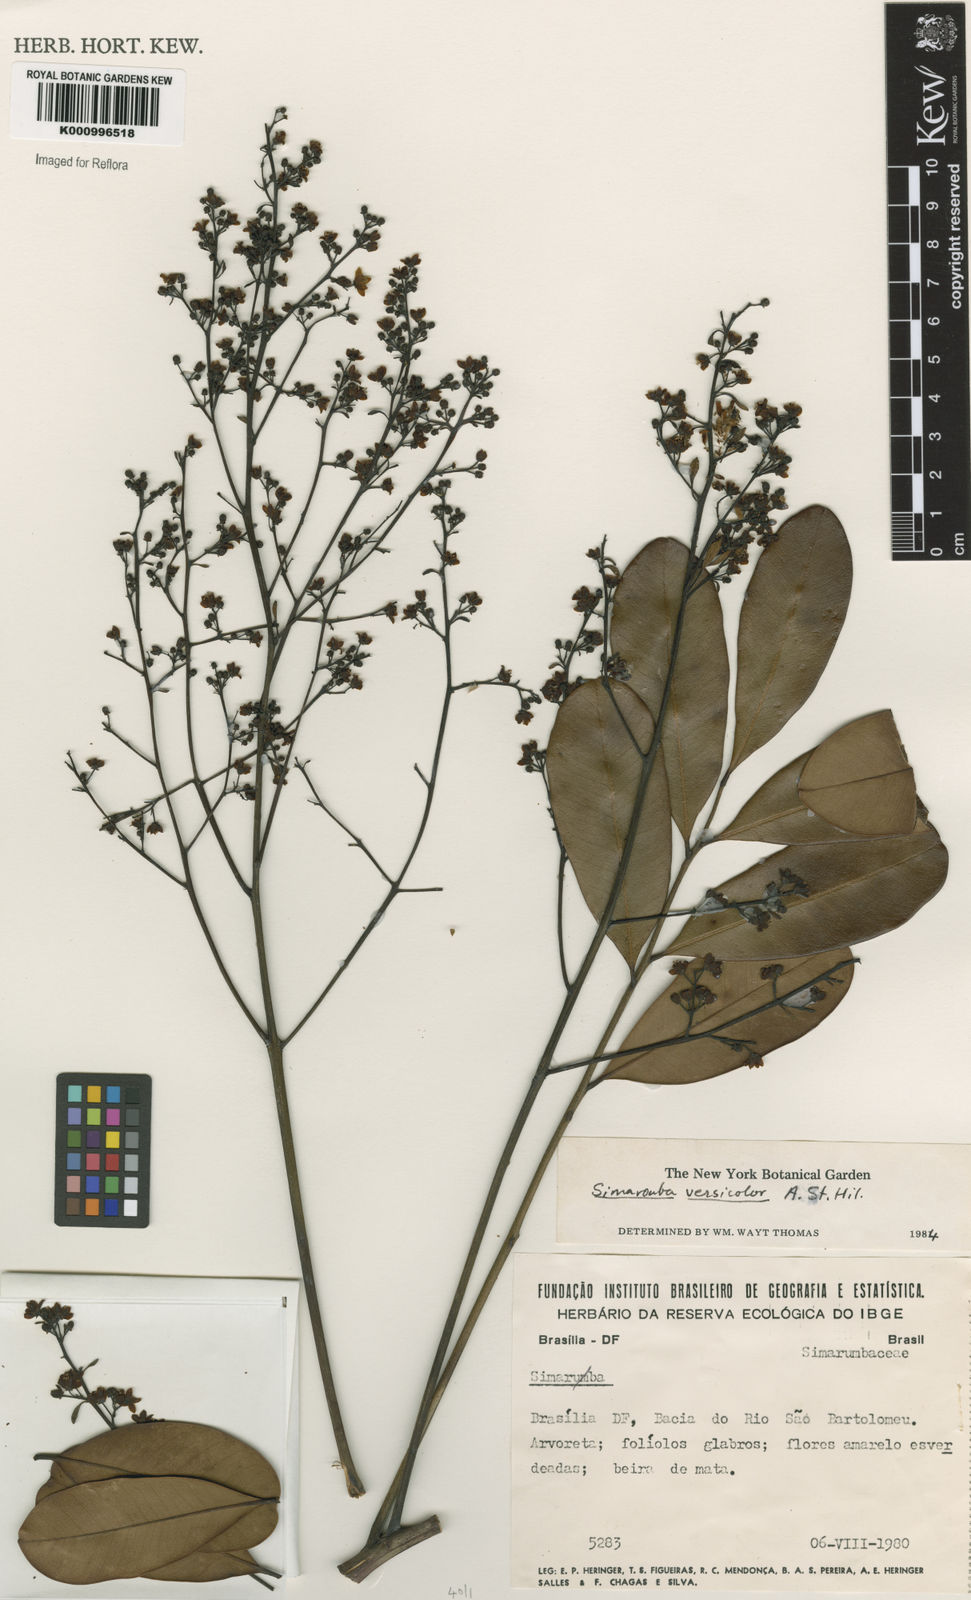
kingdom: Plantae
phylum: Tracheophyta
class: Magnoliopsida
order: Sapindales
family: Simaroubaceae
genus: Simarouba
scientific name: Simarouba versicolor
